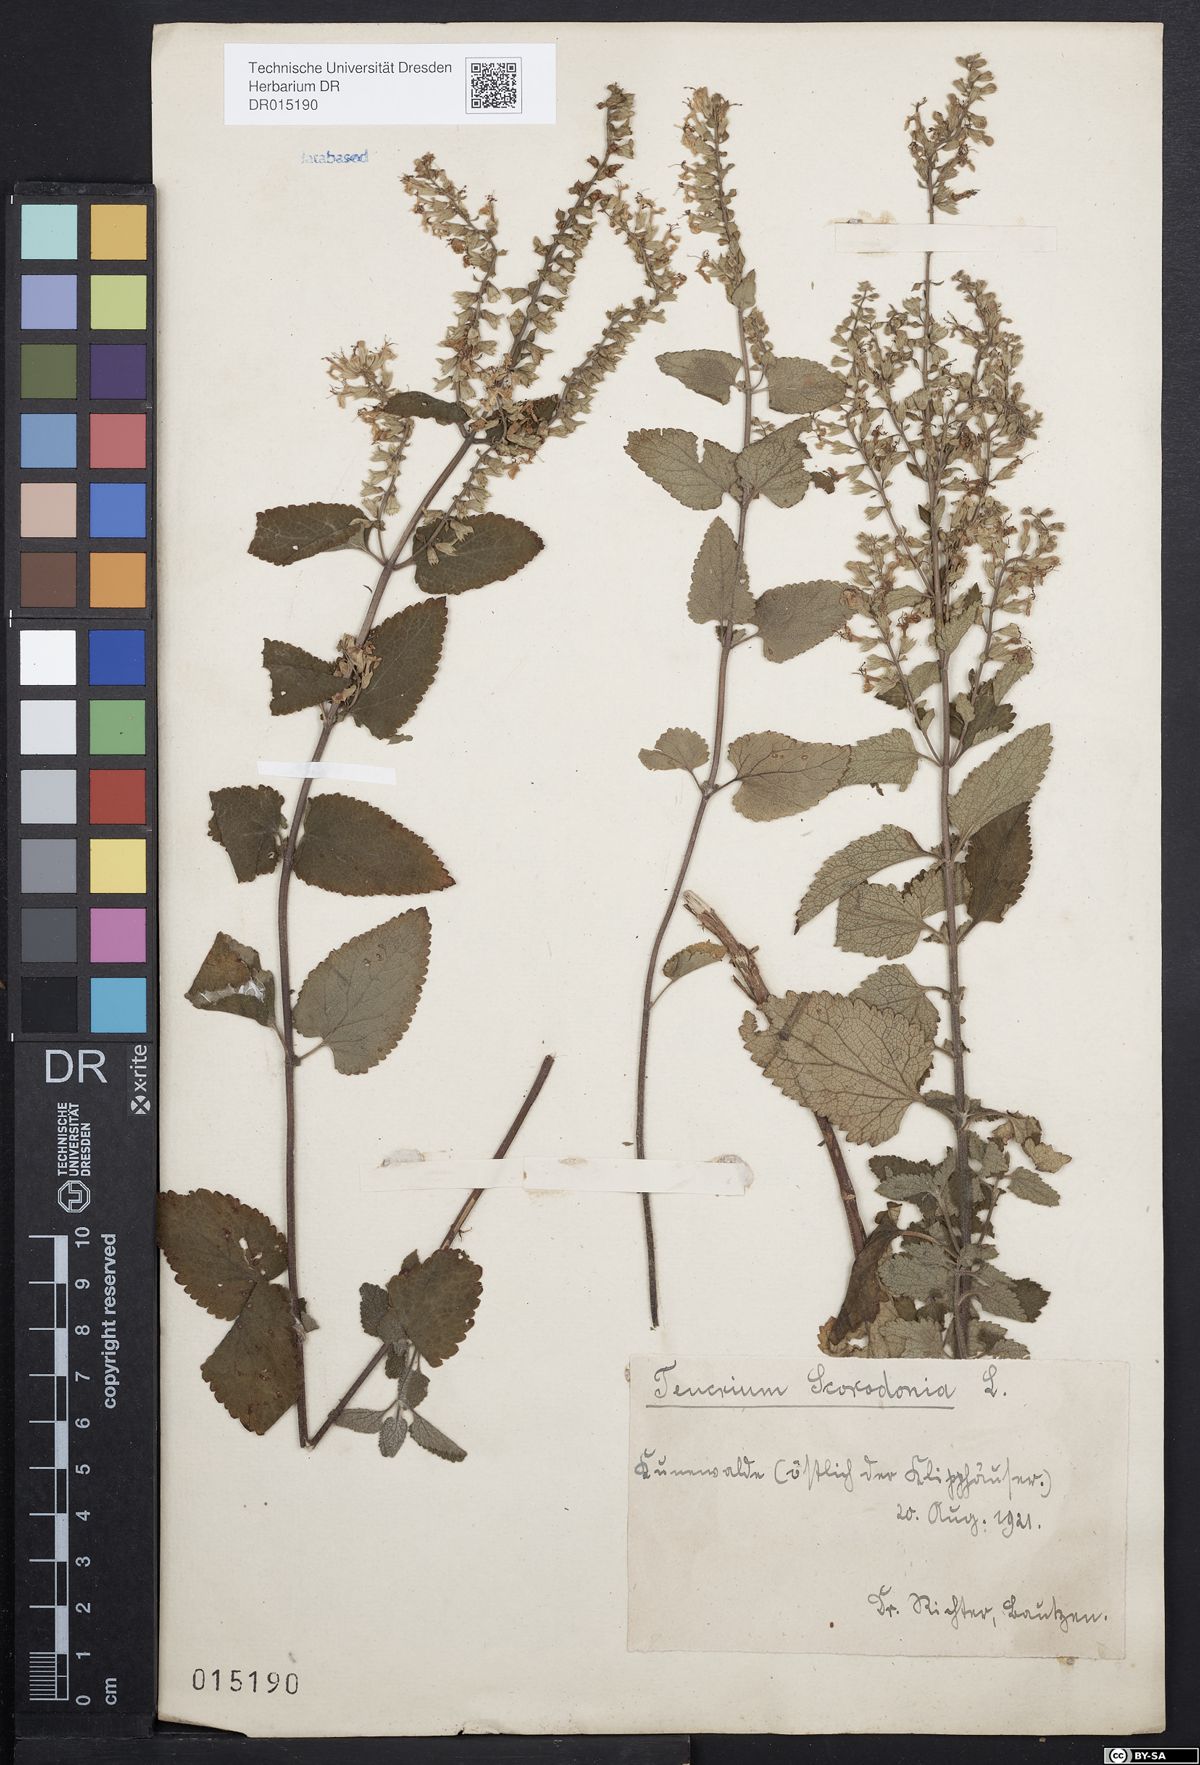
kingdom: Plantae
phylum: Tracheophyta
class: Magnoliopsida
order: Lamiales
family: Lamiaceae
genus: Teucrium
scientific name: Teucrium scorodonia
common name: Woodland germander
